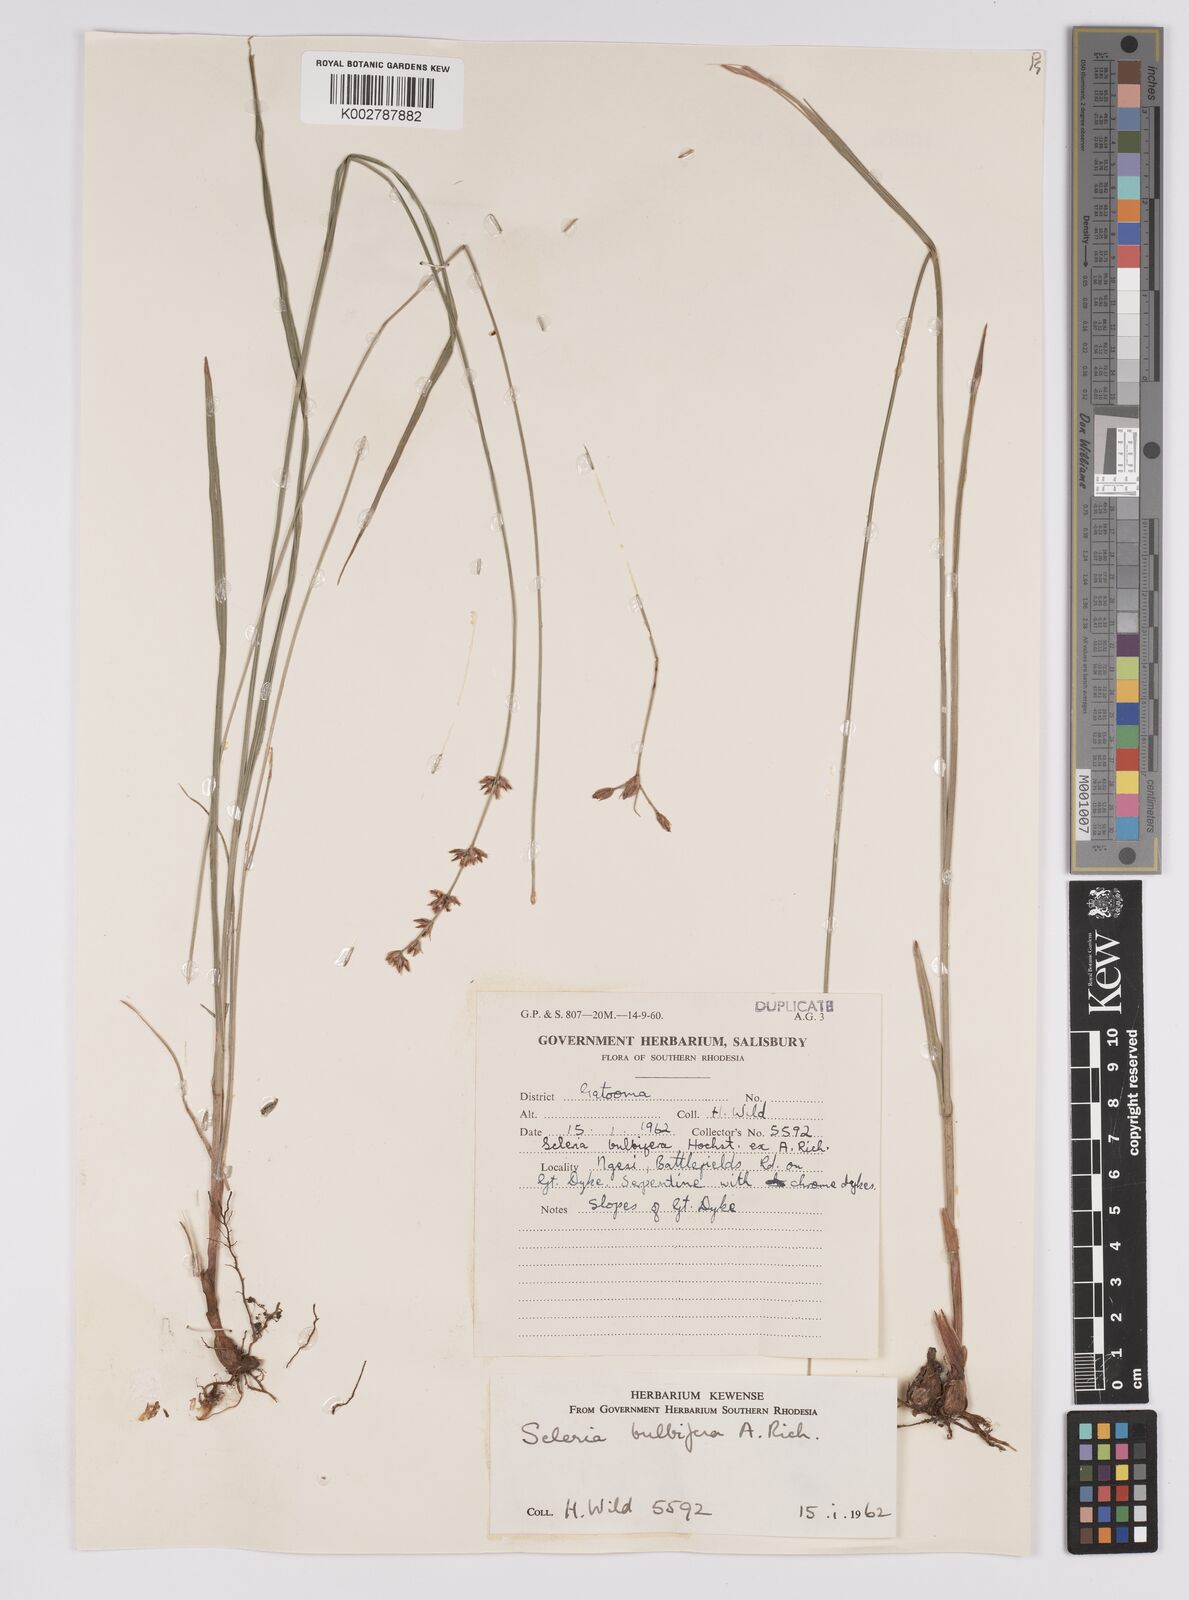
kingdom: Plantae
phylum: Tracheophyta
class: Liliopsida
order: Poales
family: Cyperaceae
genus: Scleria
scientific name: Scleria bulbifera
